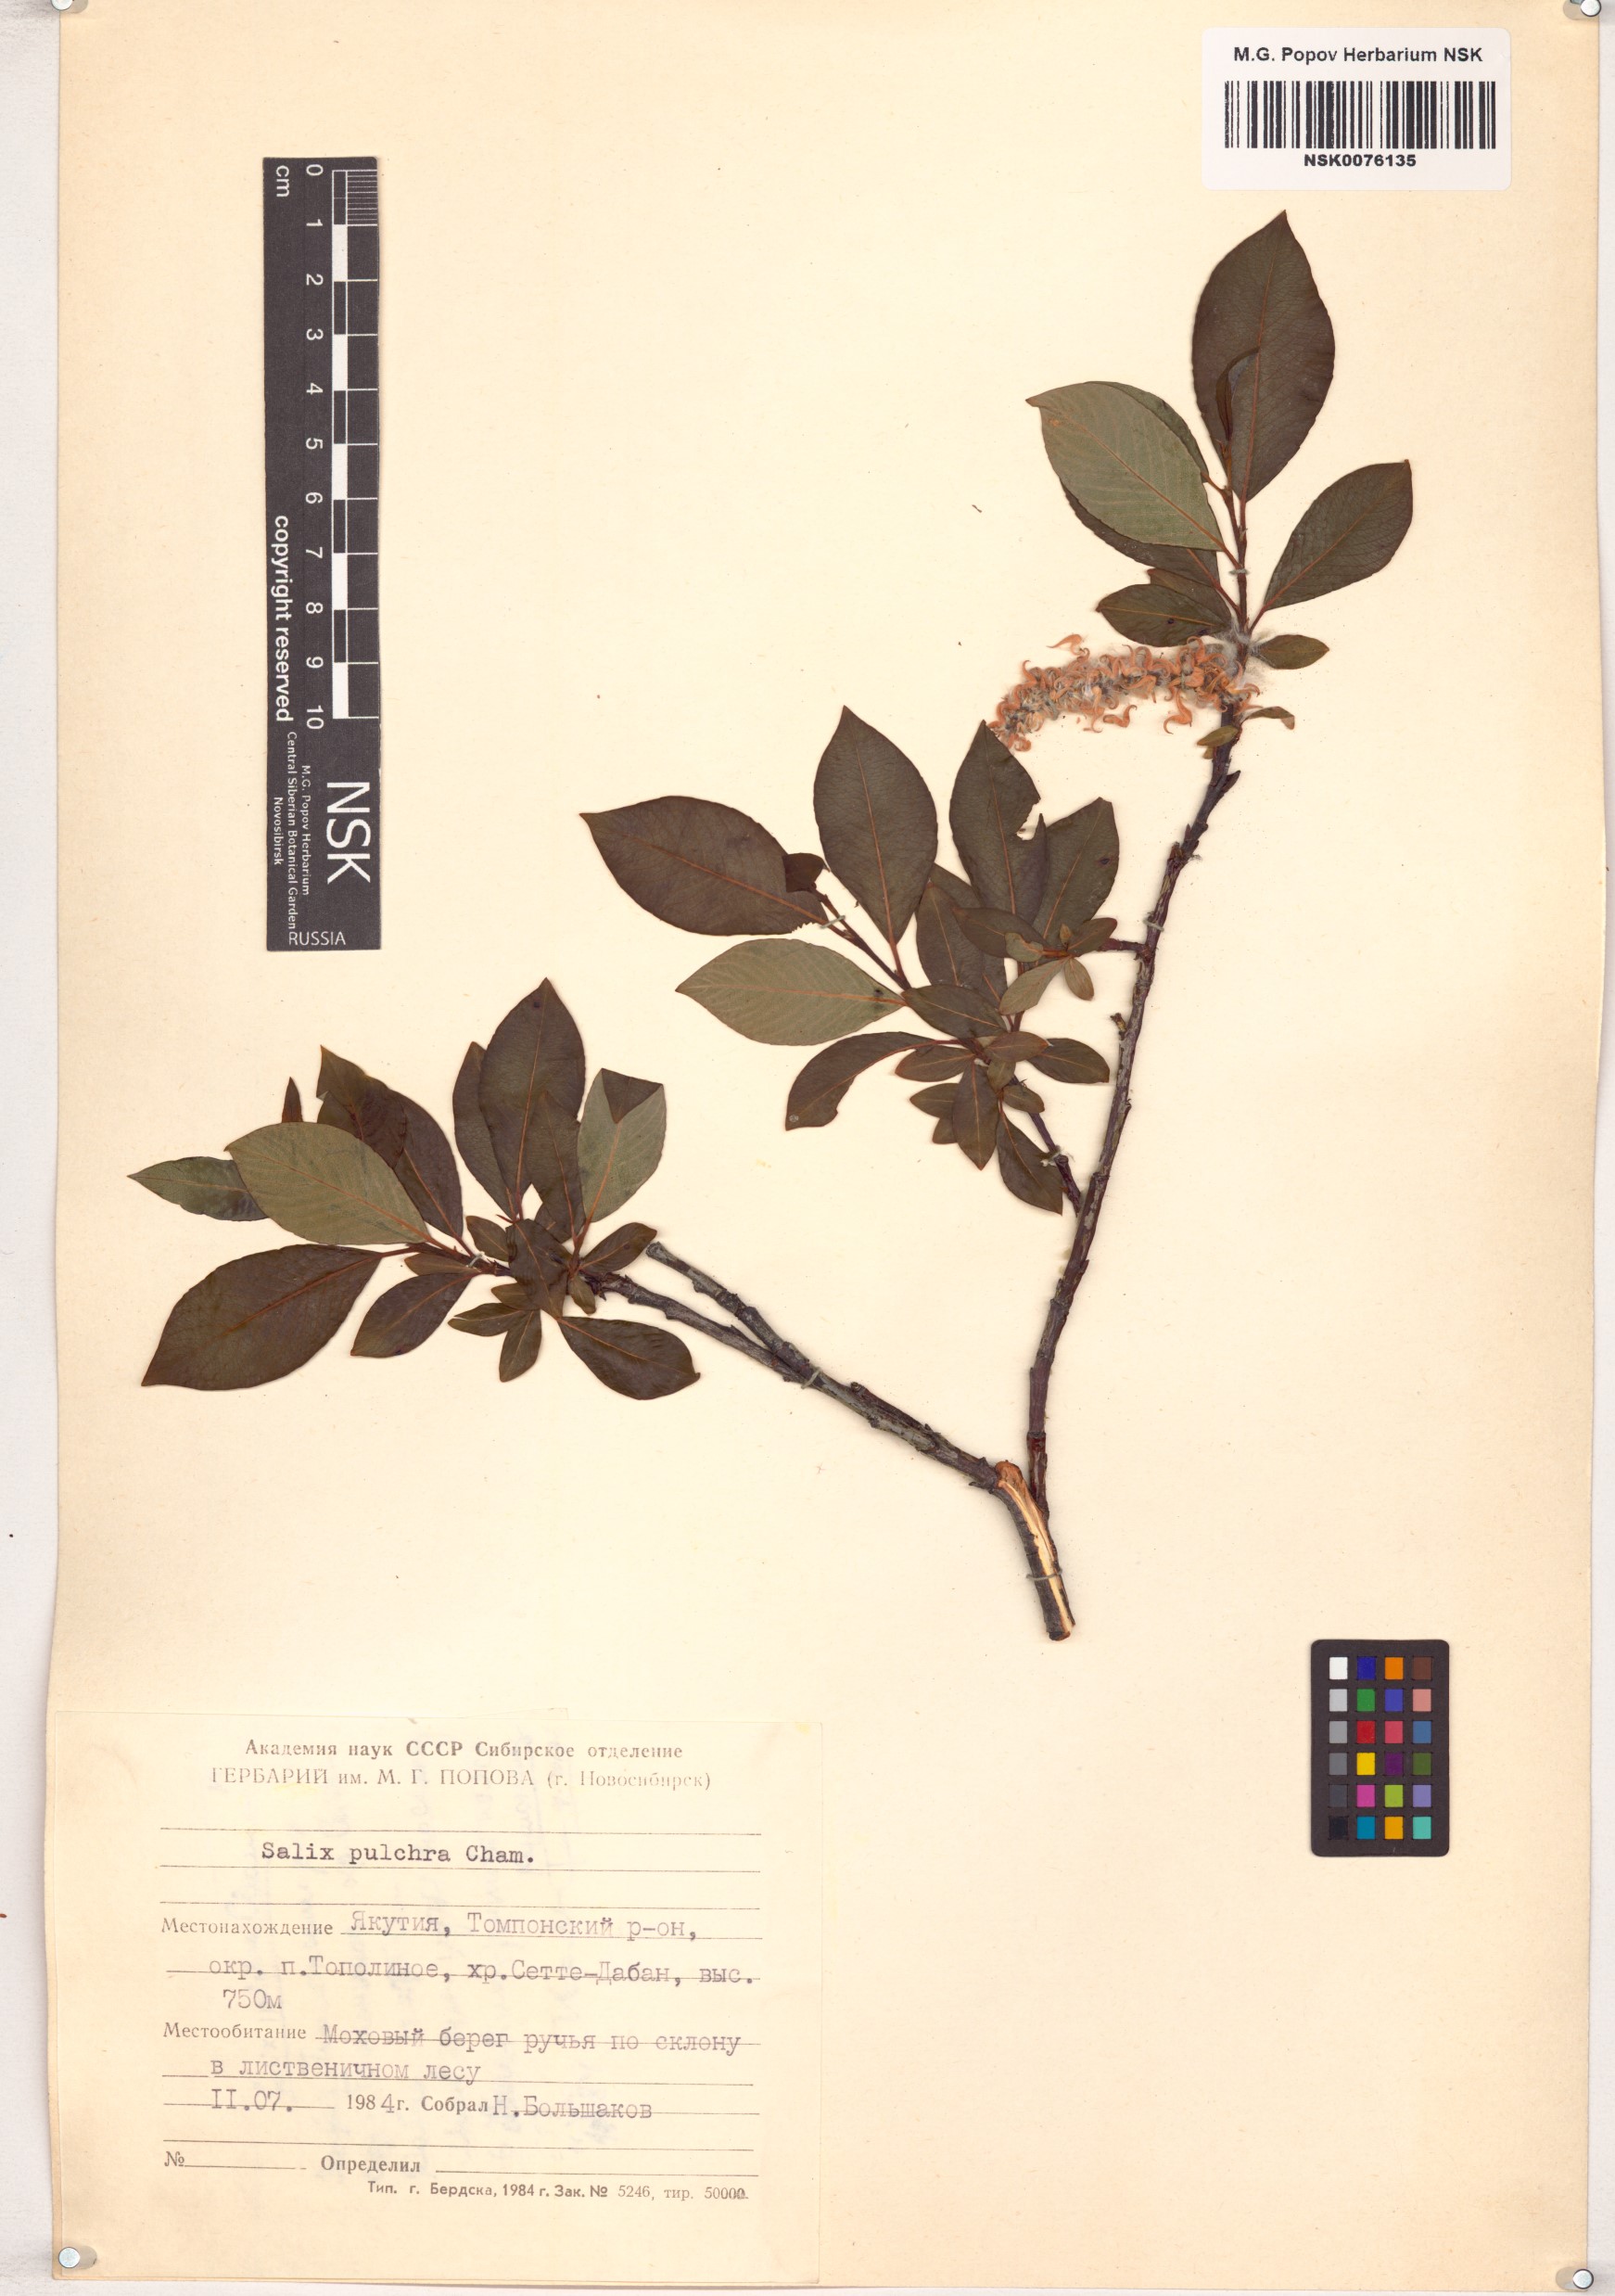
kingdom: Plantae
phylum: Tracheophyta
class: Magnoliopsida
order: Malpighiales
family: Salicaceae
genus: Salix
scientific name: Salix pulchra
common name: Diamond-leaved willow
